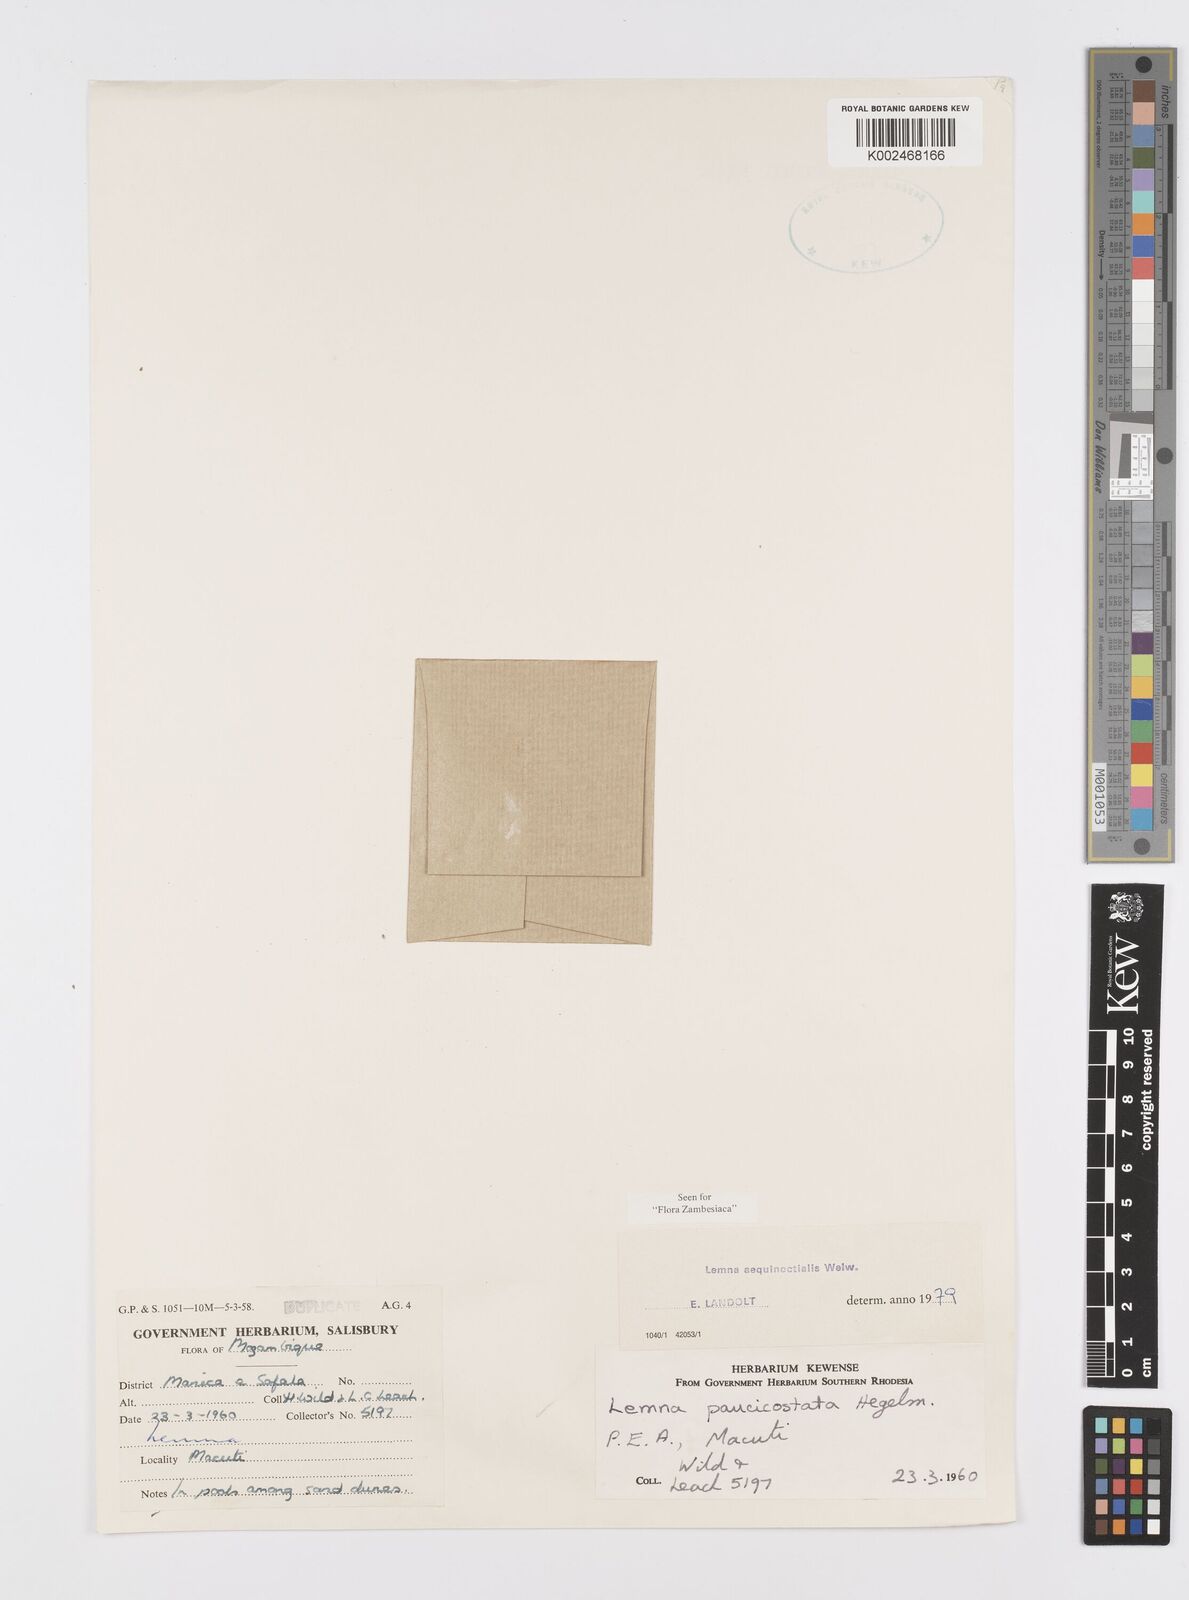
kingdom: Plantae
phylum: Tracheophyta
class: Liliopsida
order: Alismatales
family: Araceae
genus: Lemna
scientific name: Lemna aequinoctialis
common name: Duckweed
